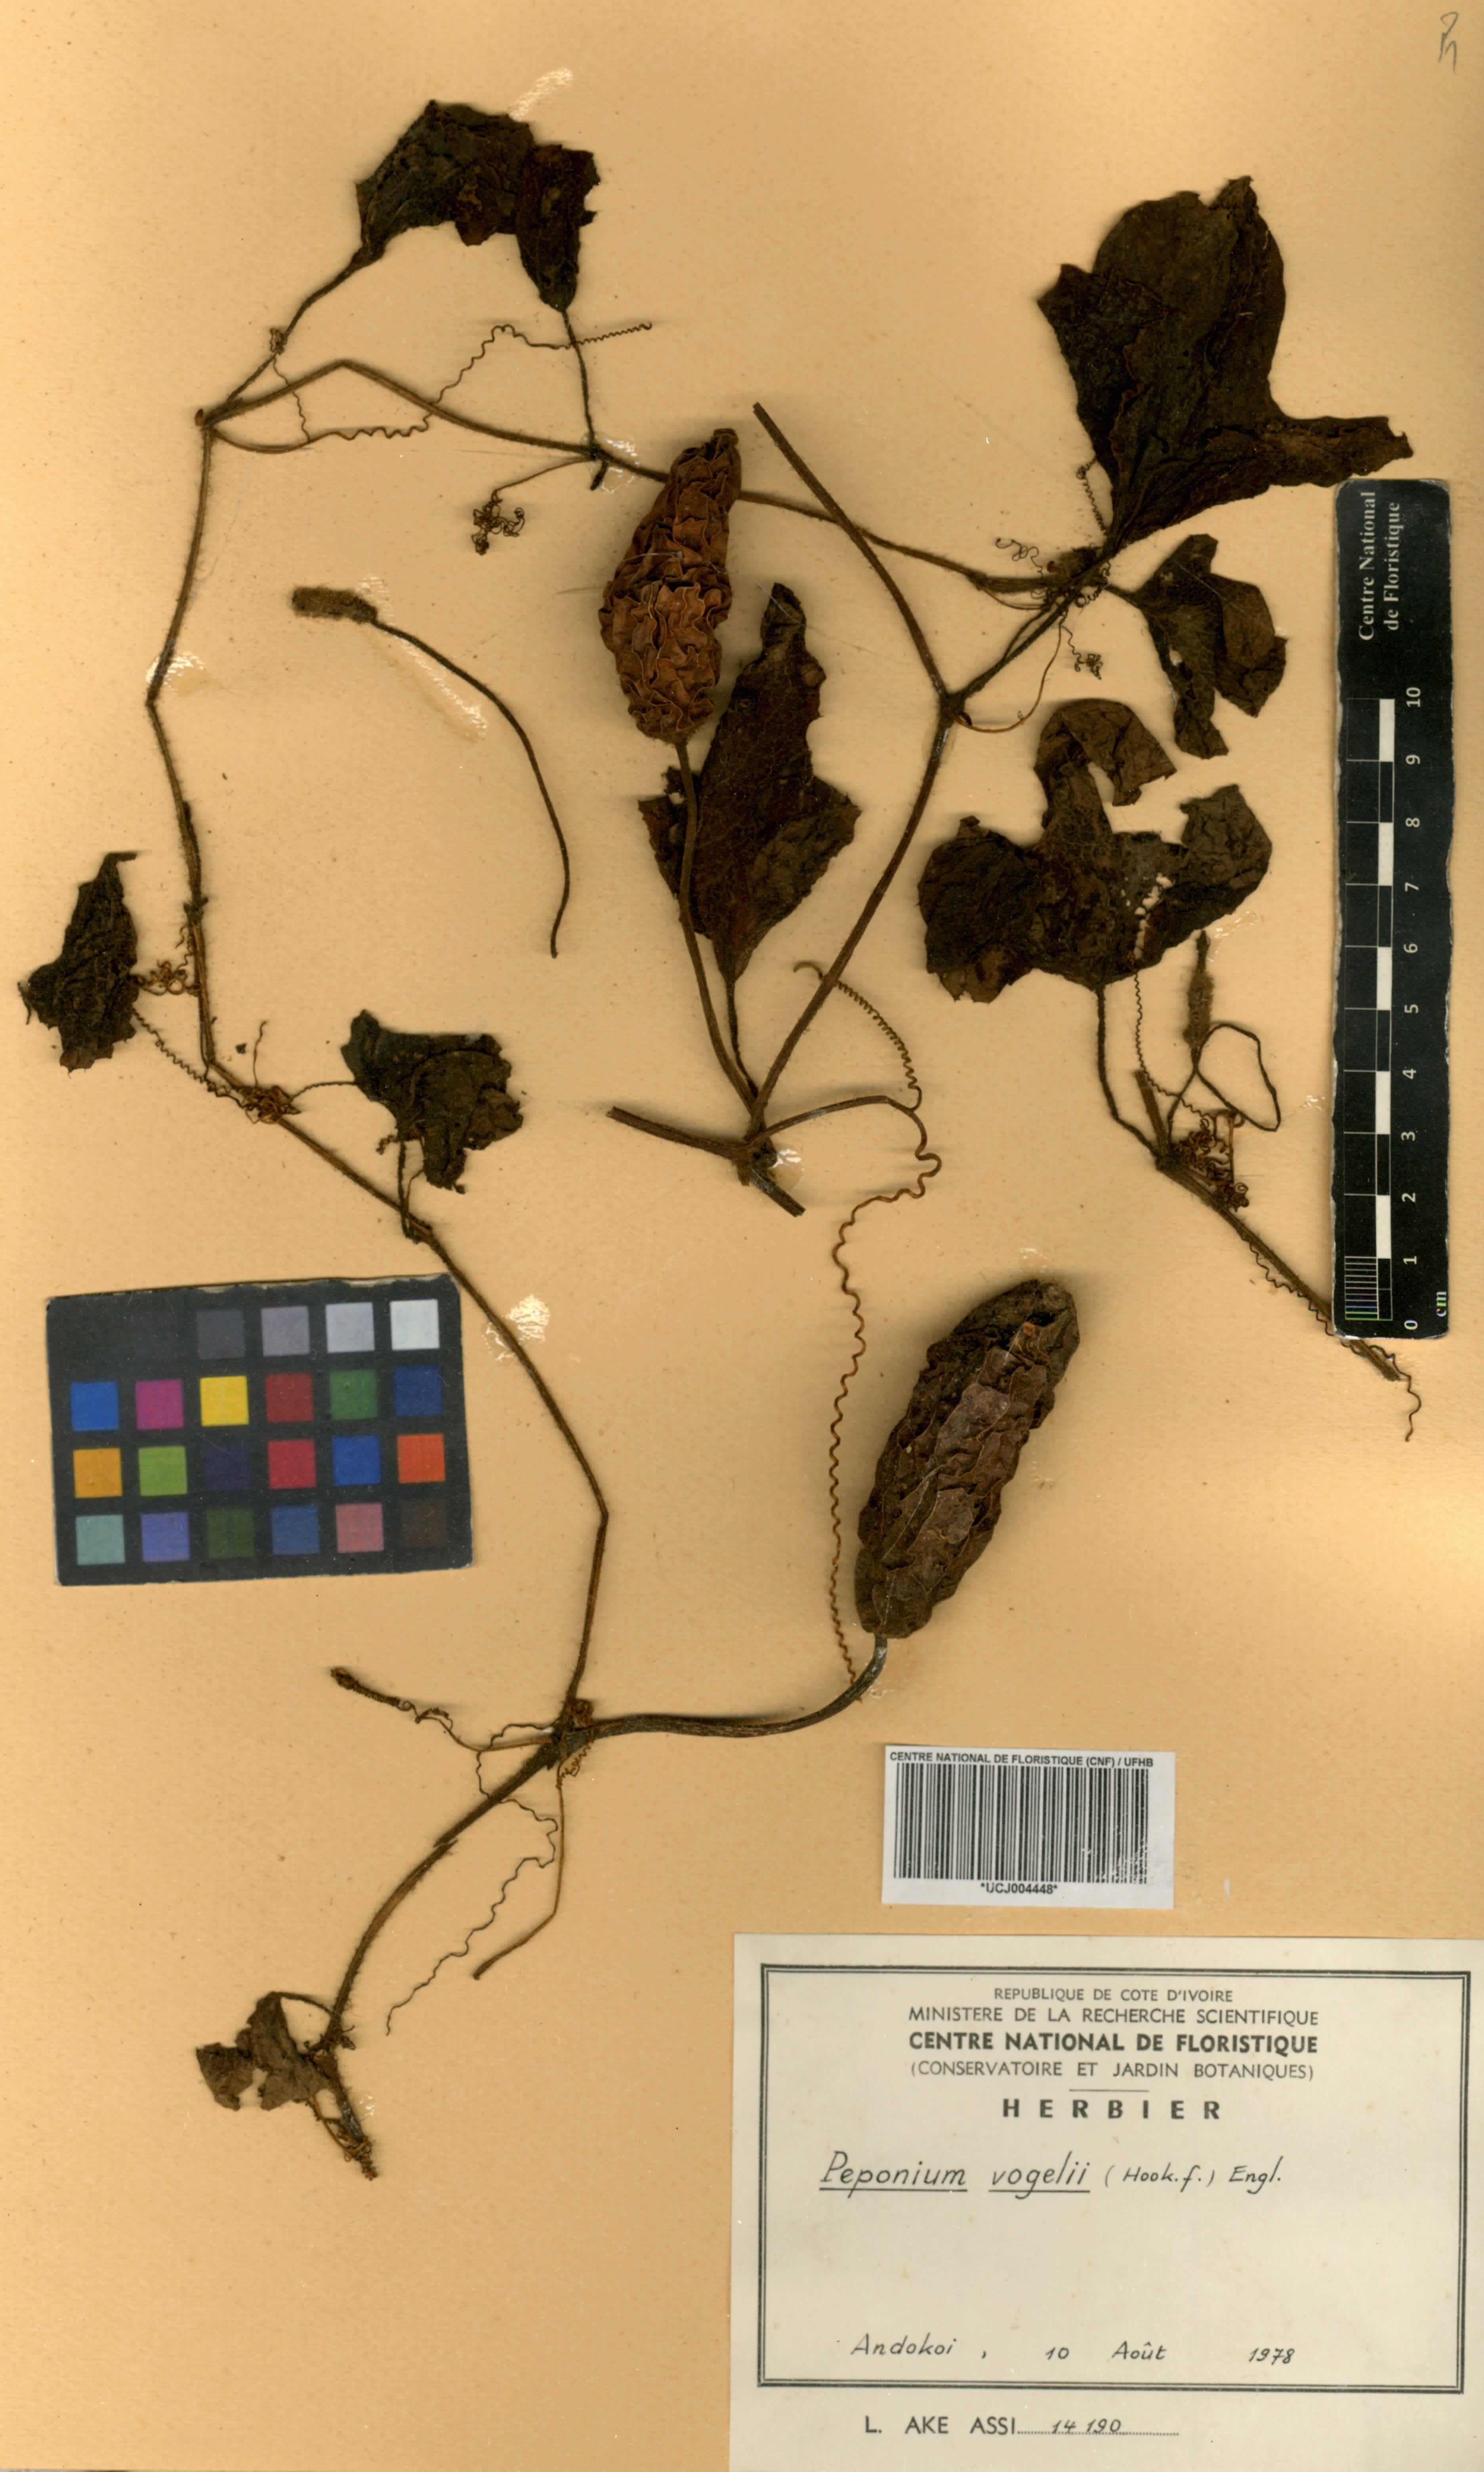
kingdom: Plantae
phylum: Tracheophyta
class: Magnoliopsida
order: Cucurbitales
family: Cucurbitaceae
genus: Peponium
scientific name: Peponium vogelii
